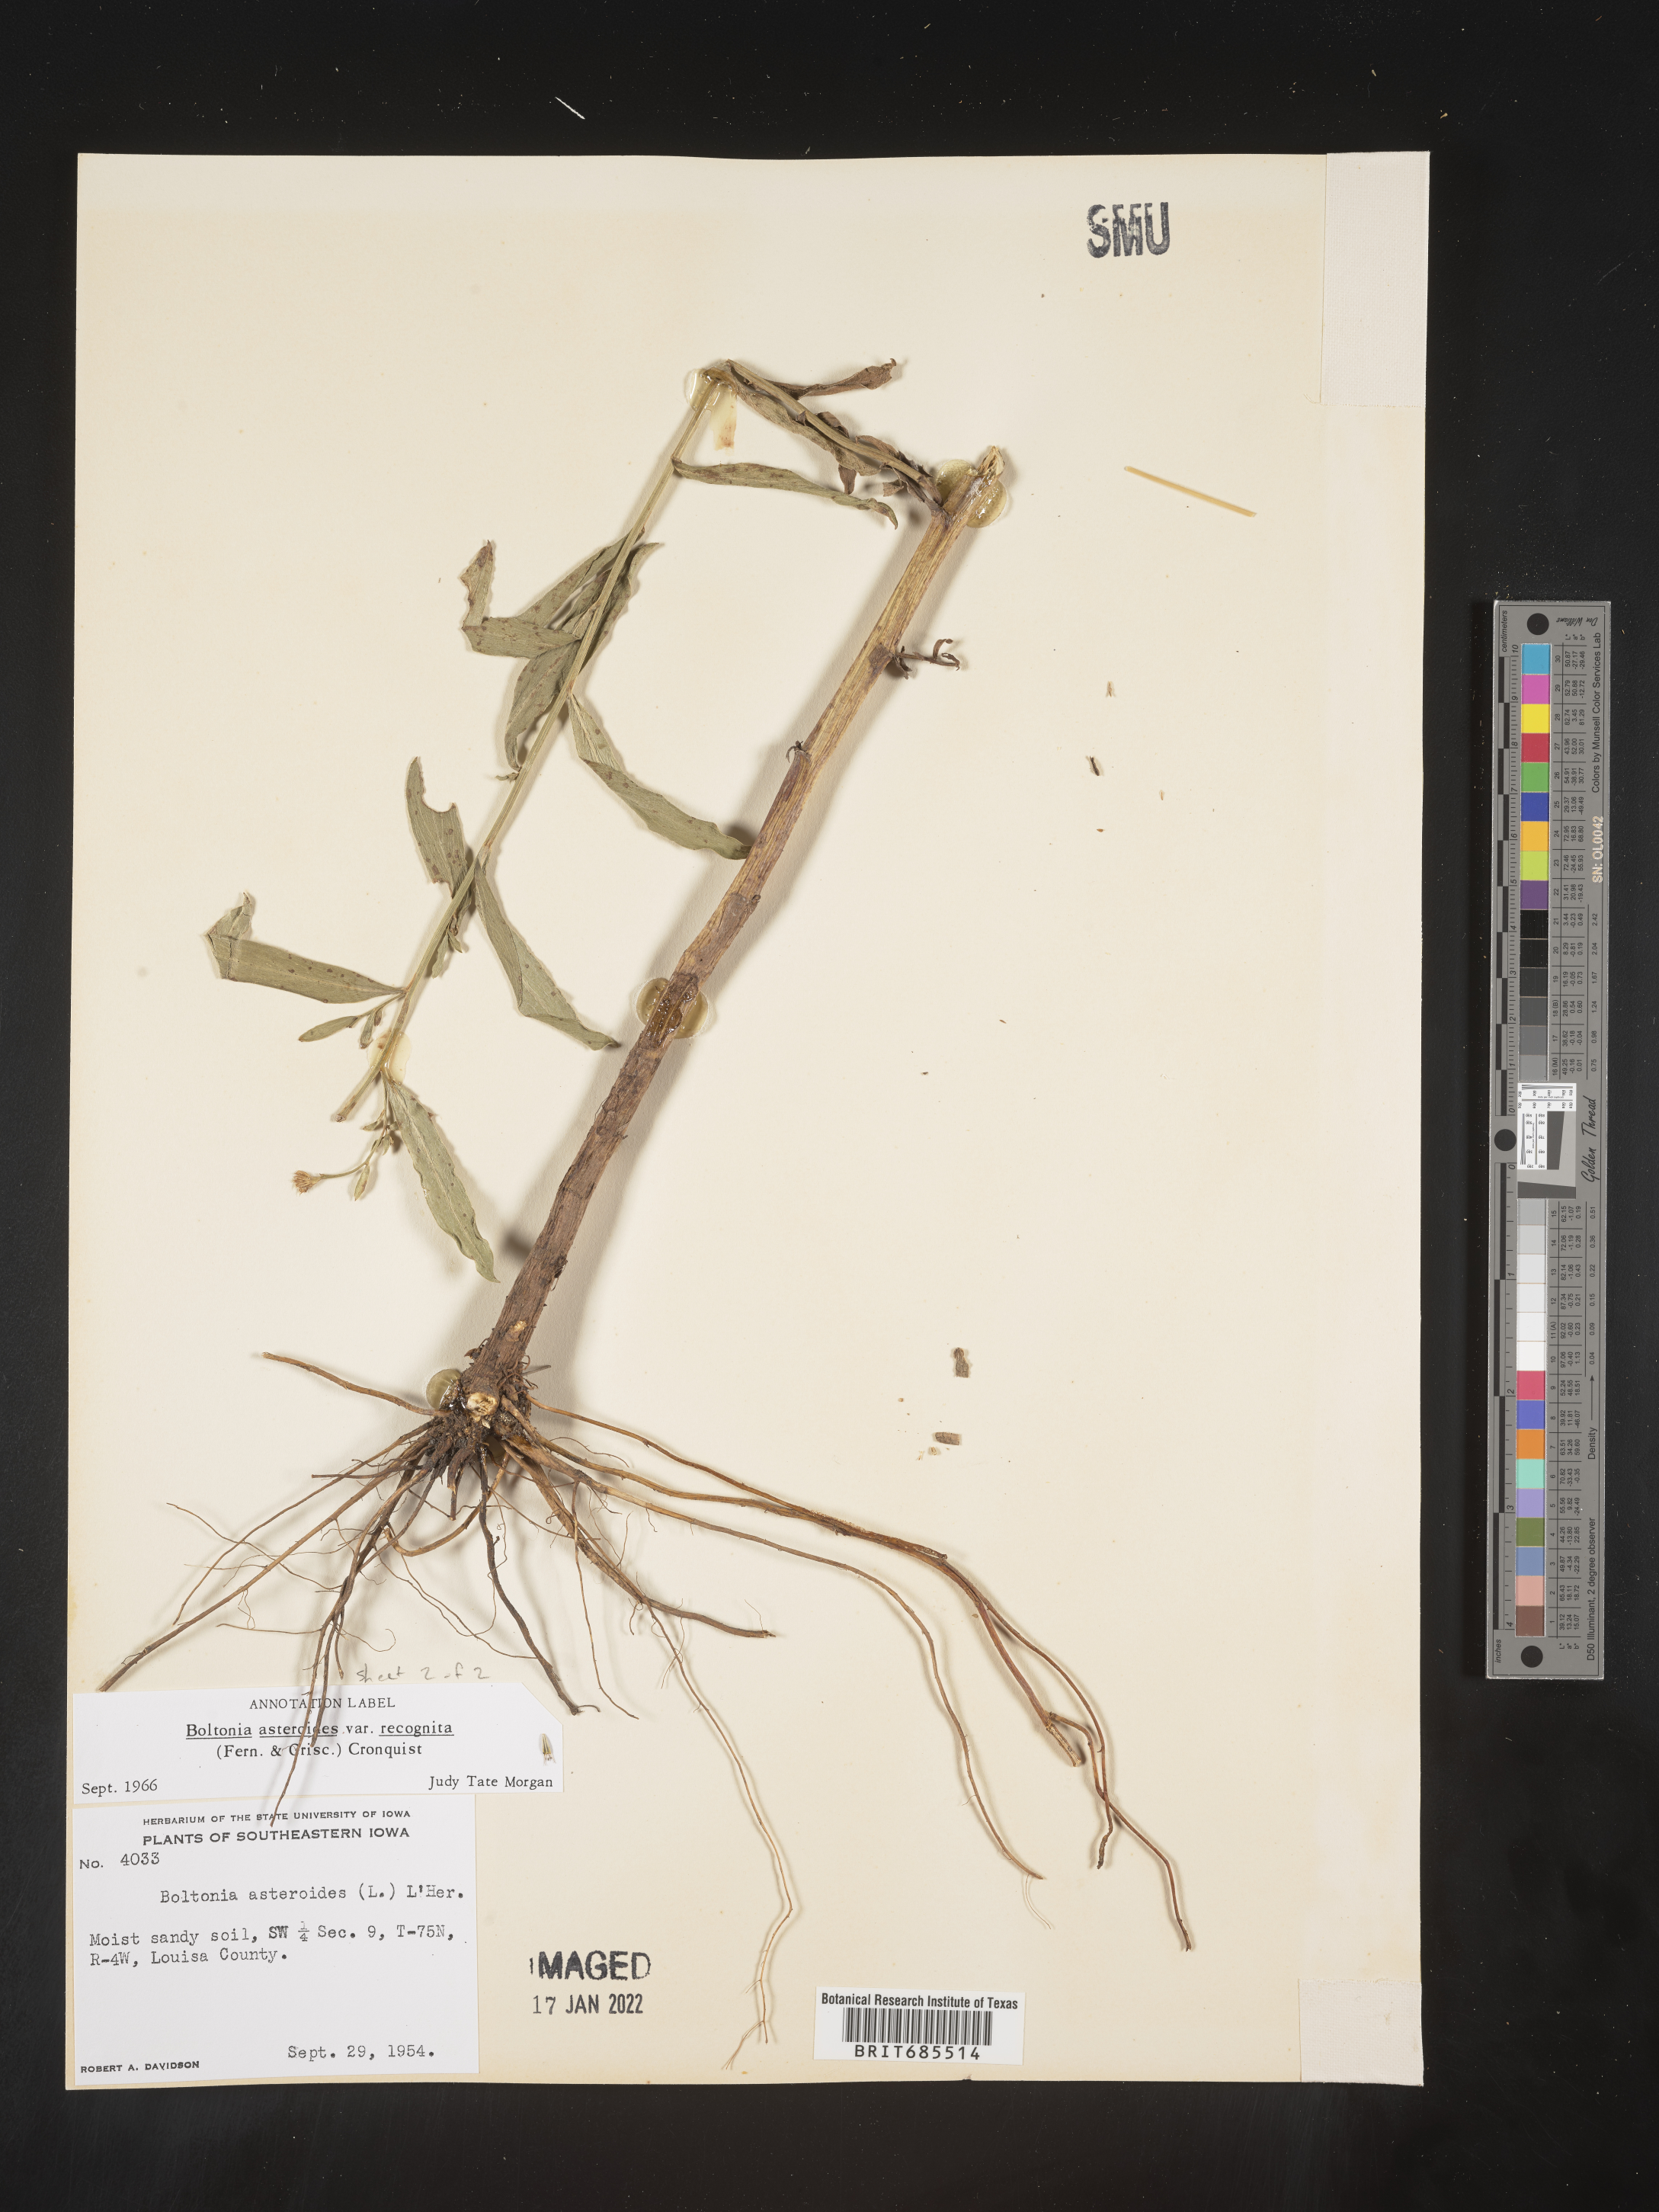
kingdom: Plantae
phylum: Tracheophyta
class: Magnoliopsida
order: Asterales
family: Asteraceae
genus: Boltonia
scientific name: Boltonia asteroides
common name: False chamomile
